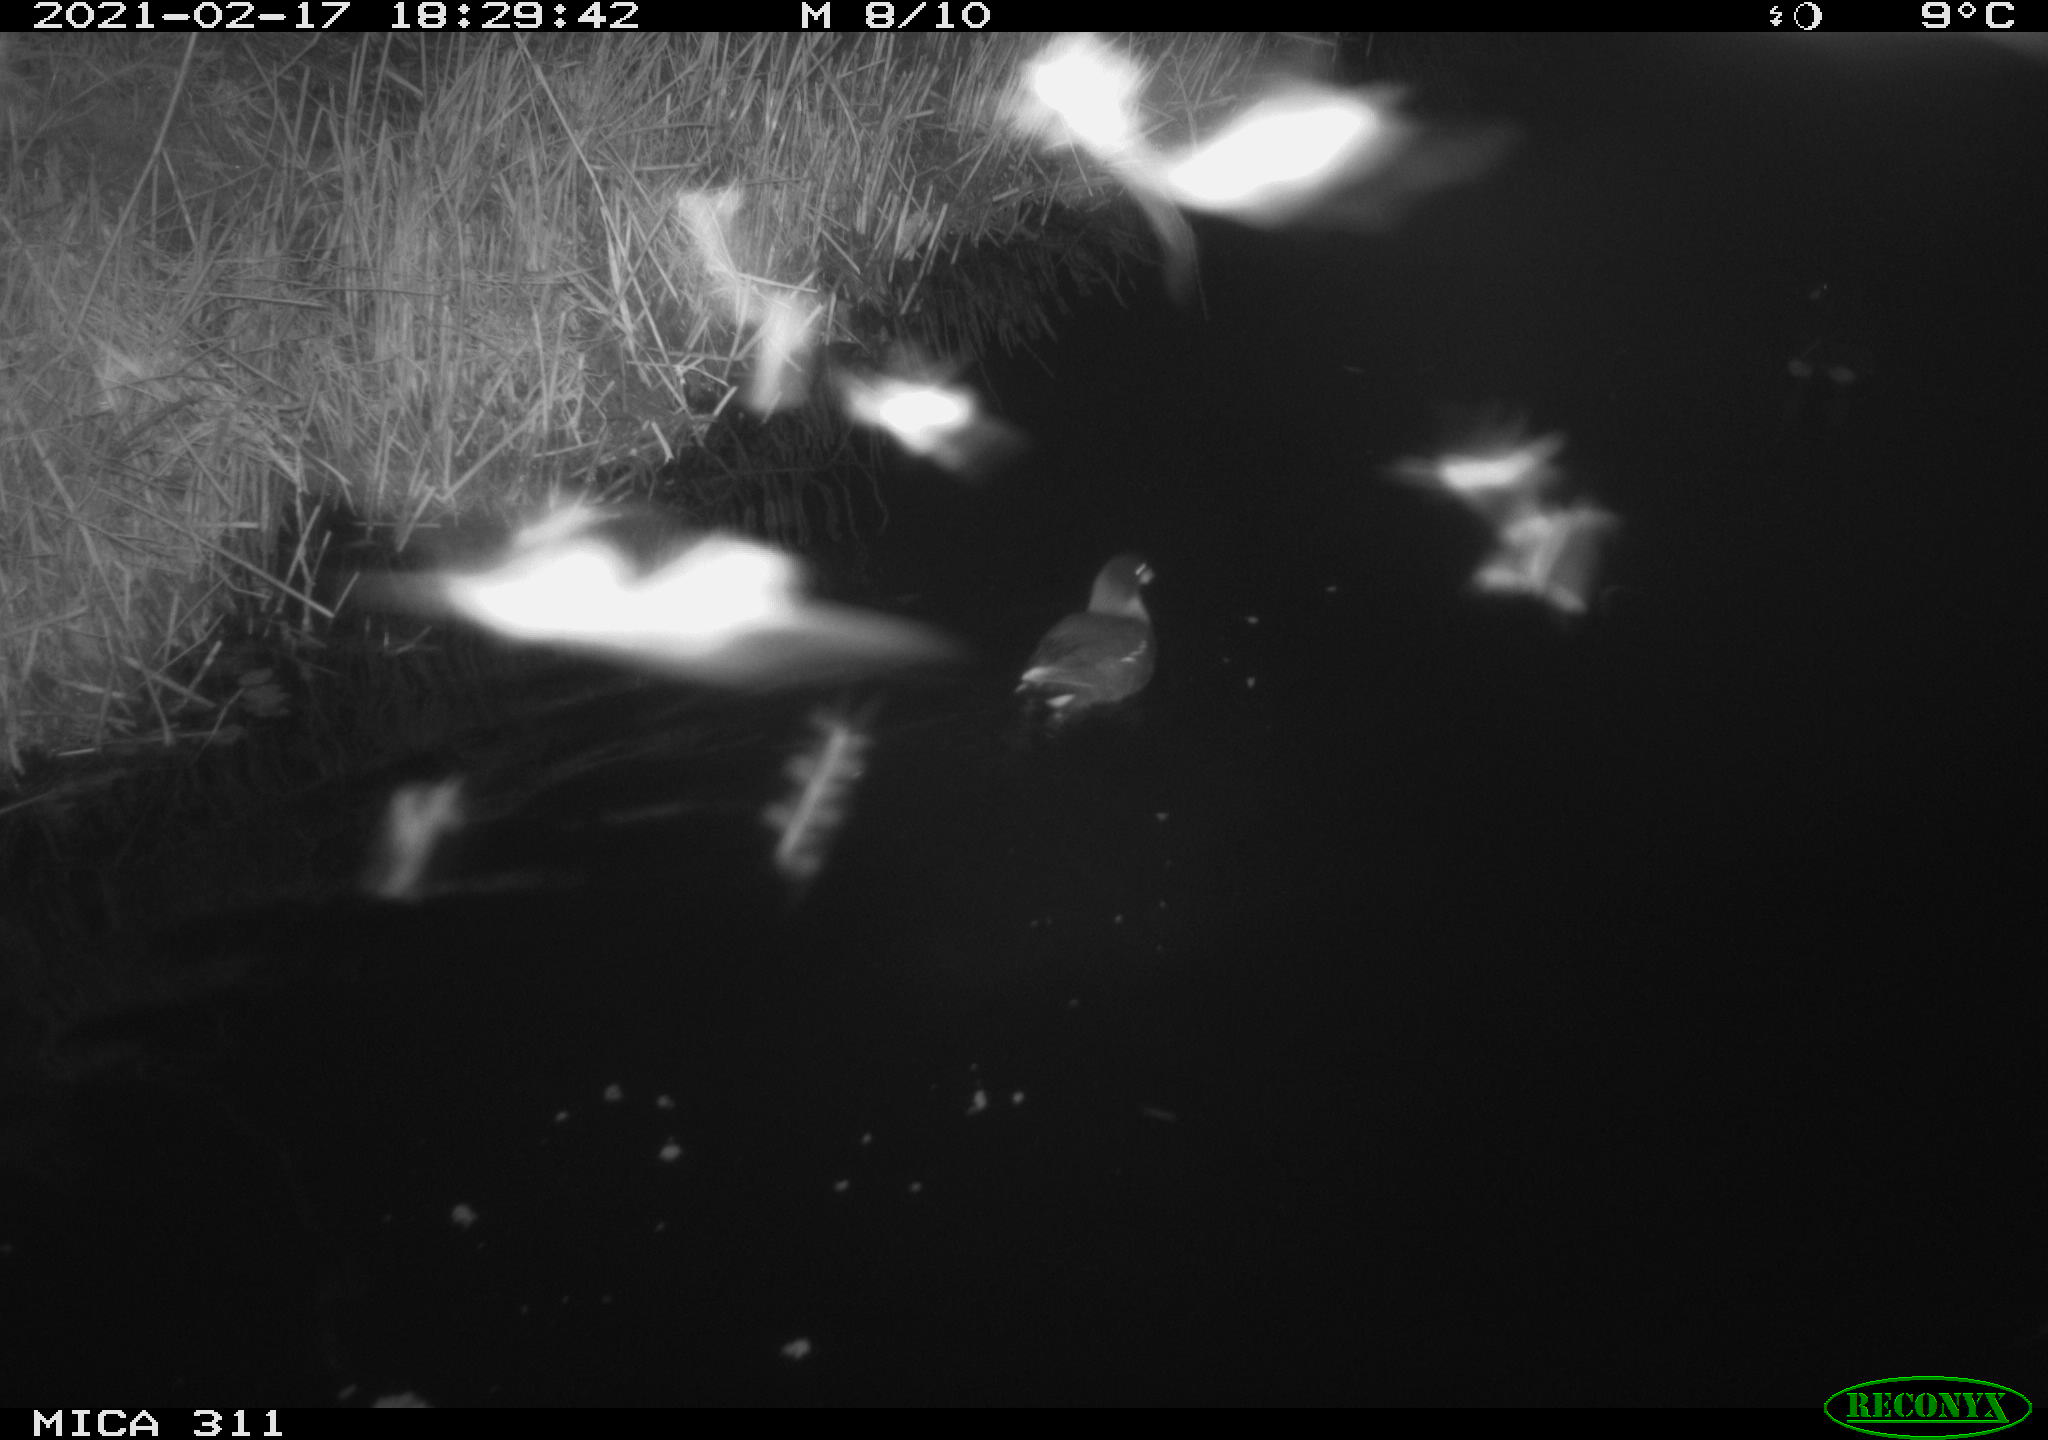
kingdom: Animalia
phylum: Chordata
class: Aves
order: Gruiformes
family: Rallidae
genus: Gallinula
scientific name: Gallinula chloropus
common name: Common moorhen
